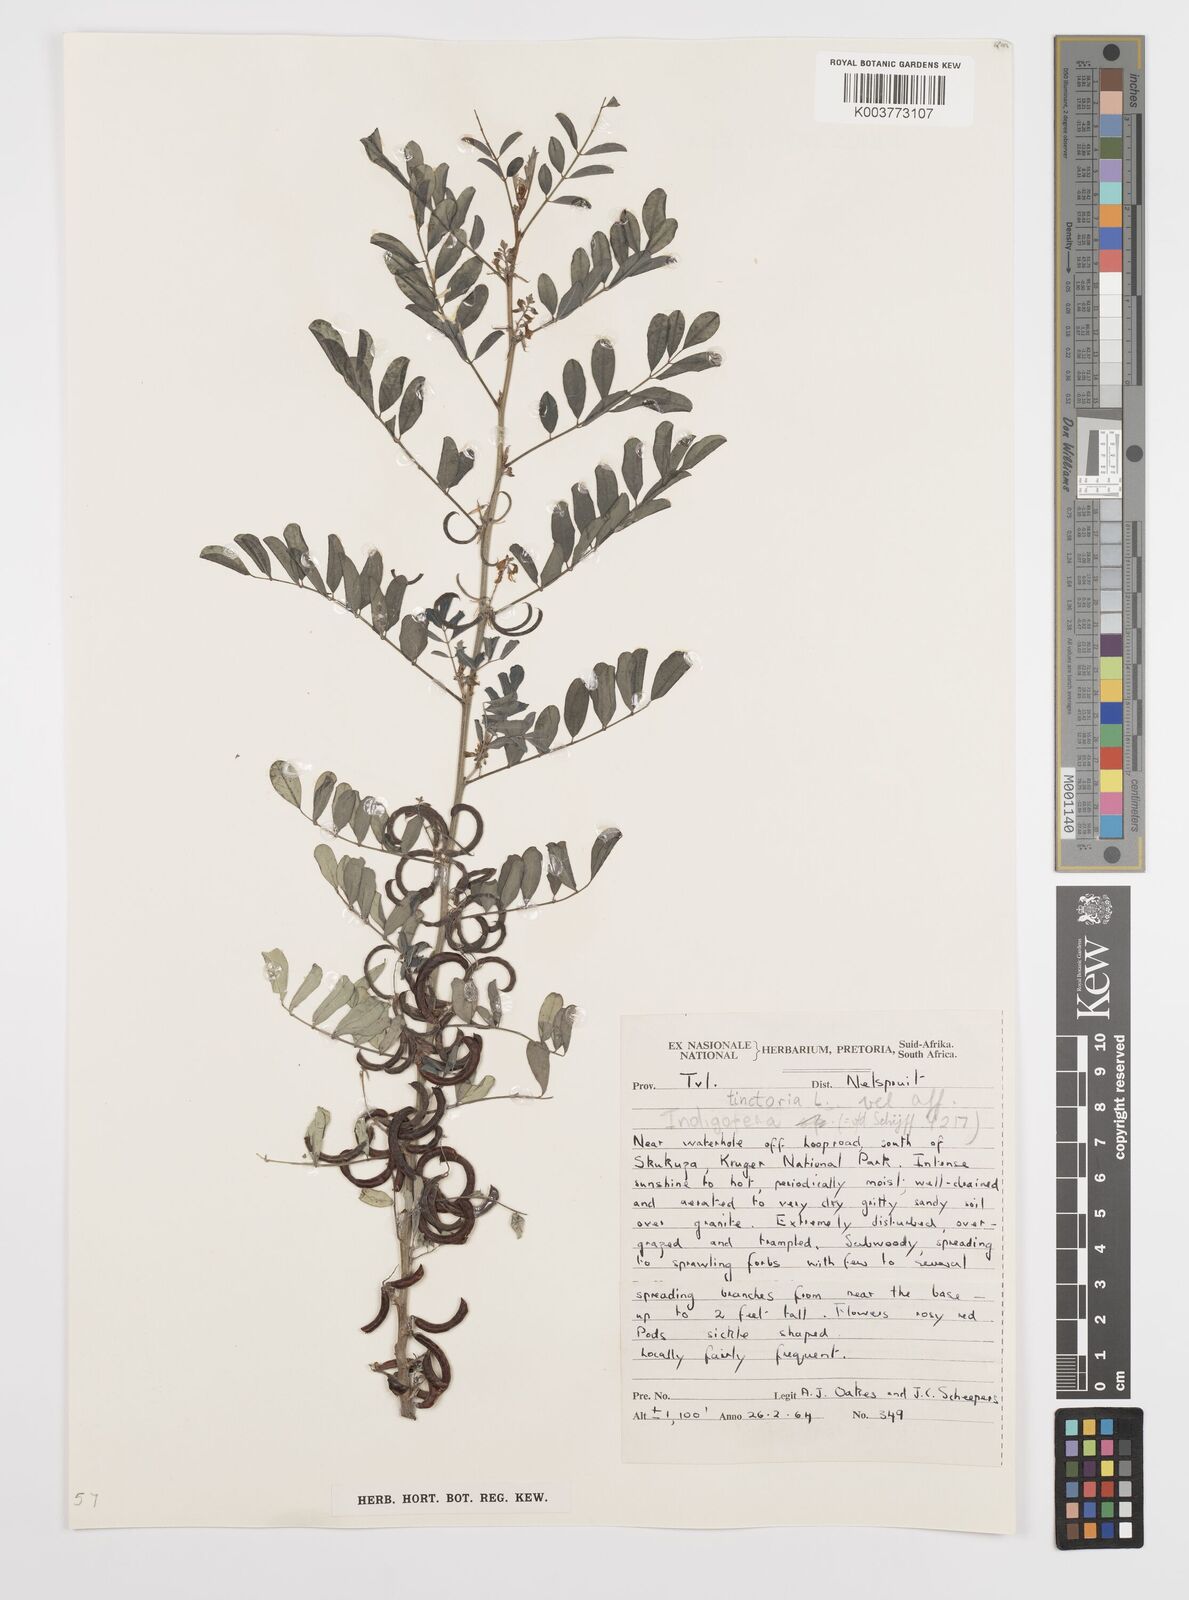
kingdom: Plantae
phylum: Tracheophyta
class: Magnoliopsida
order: Fabales
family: Fabaceae
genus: Indigofera
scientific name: Indigofera tinctoria
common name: True indigo
